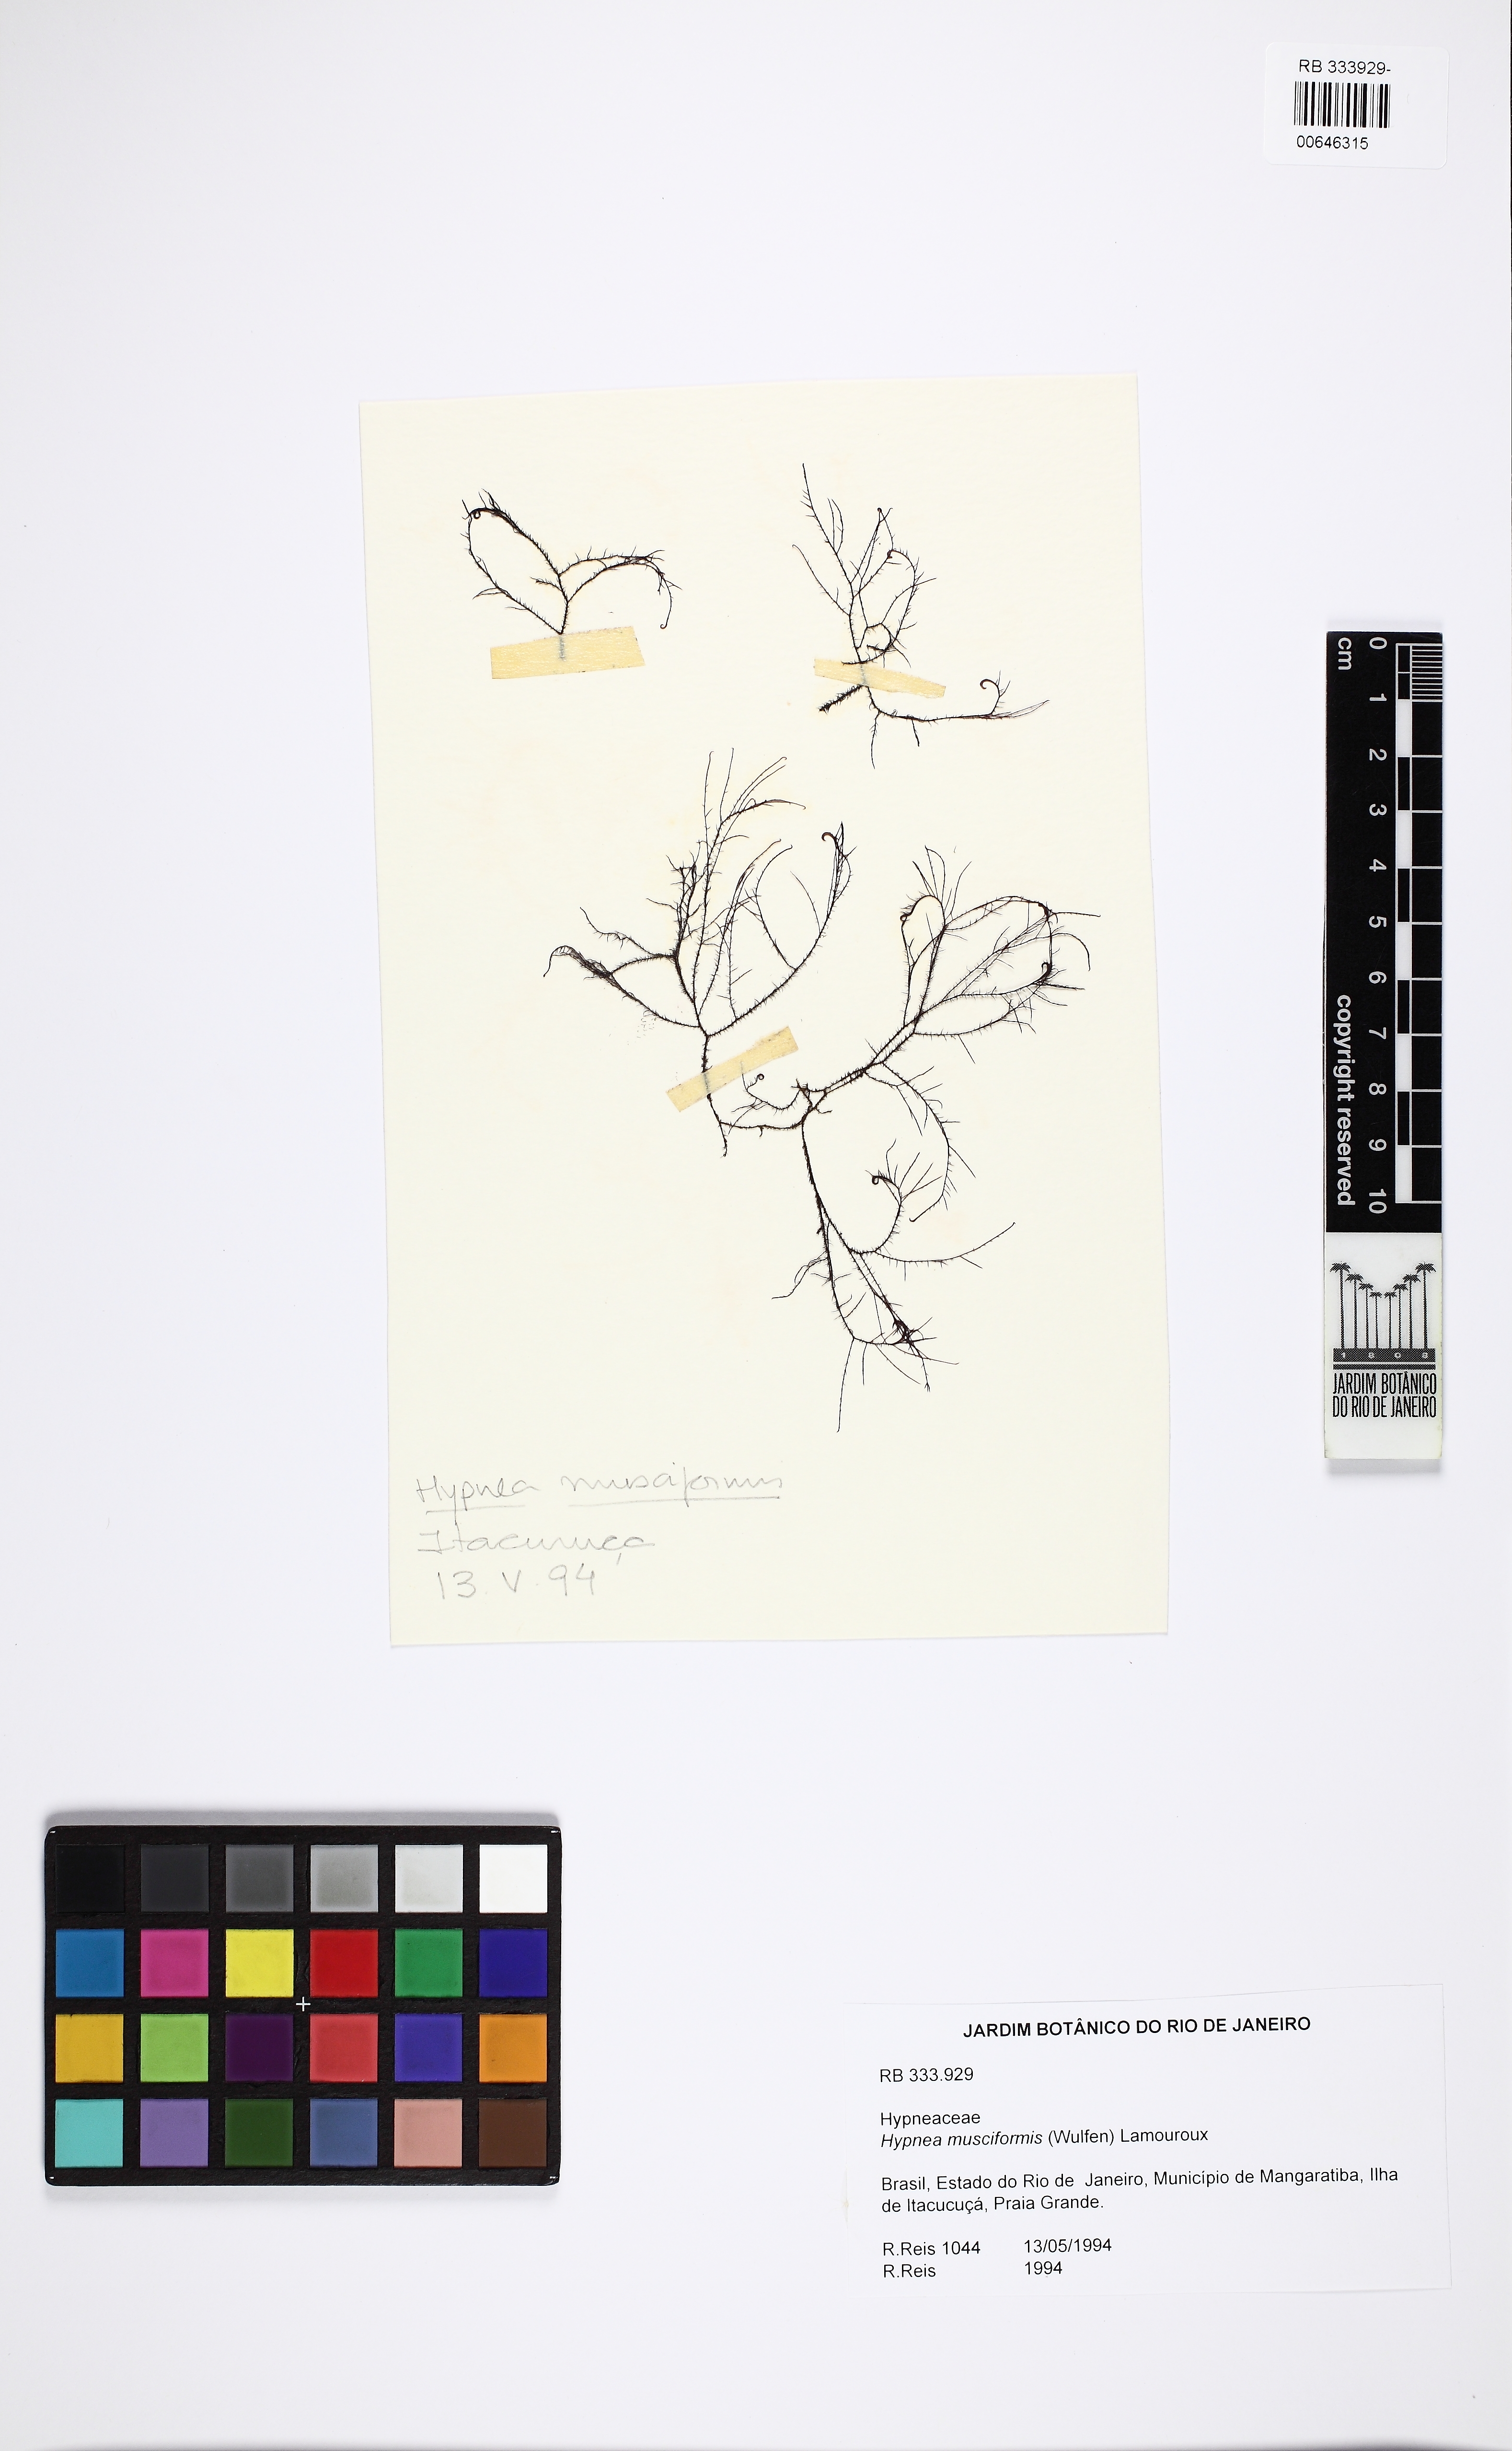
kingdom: Plantae
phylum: Rhodophyta
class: Florideophyceae
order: Gigartinales
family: Cystocloniaceae
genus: Hypnea
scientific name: Hypnea musciformis
